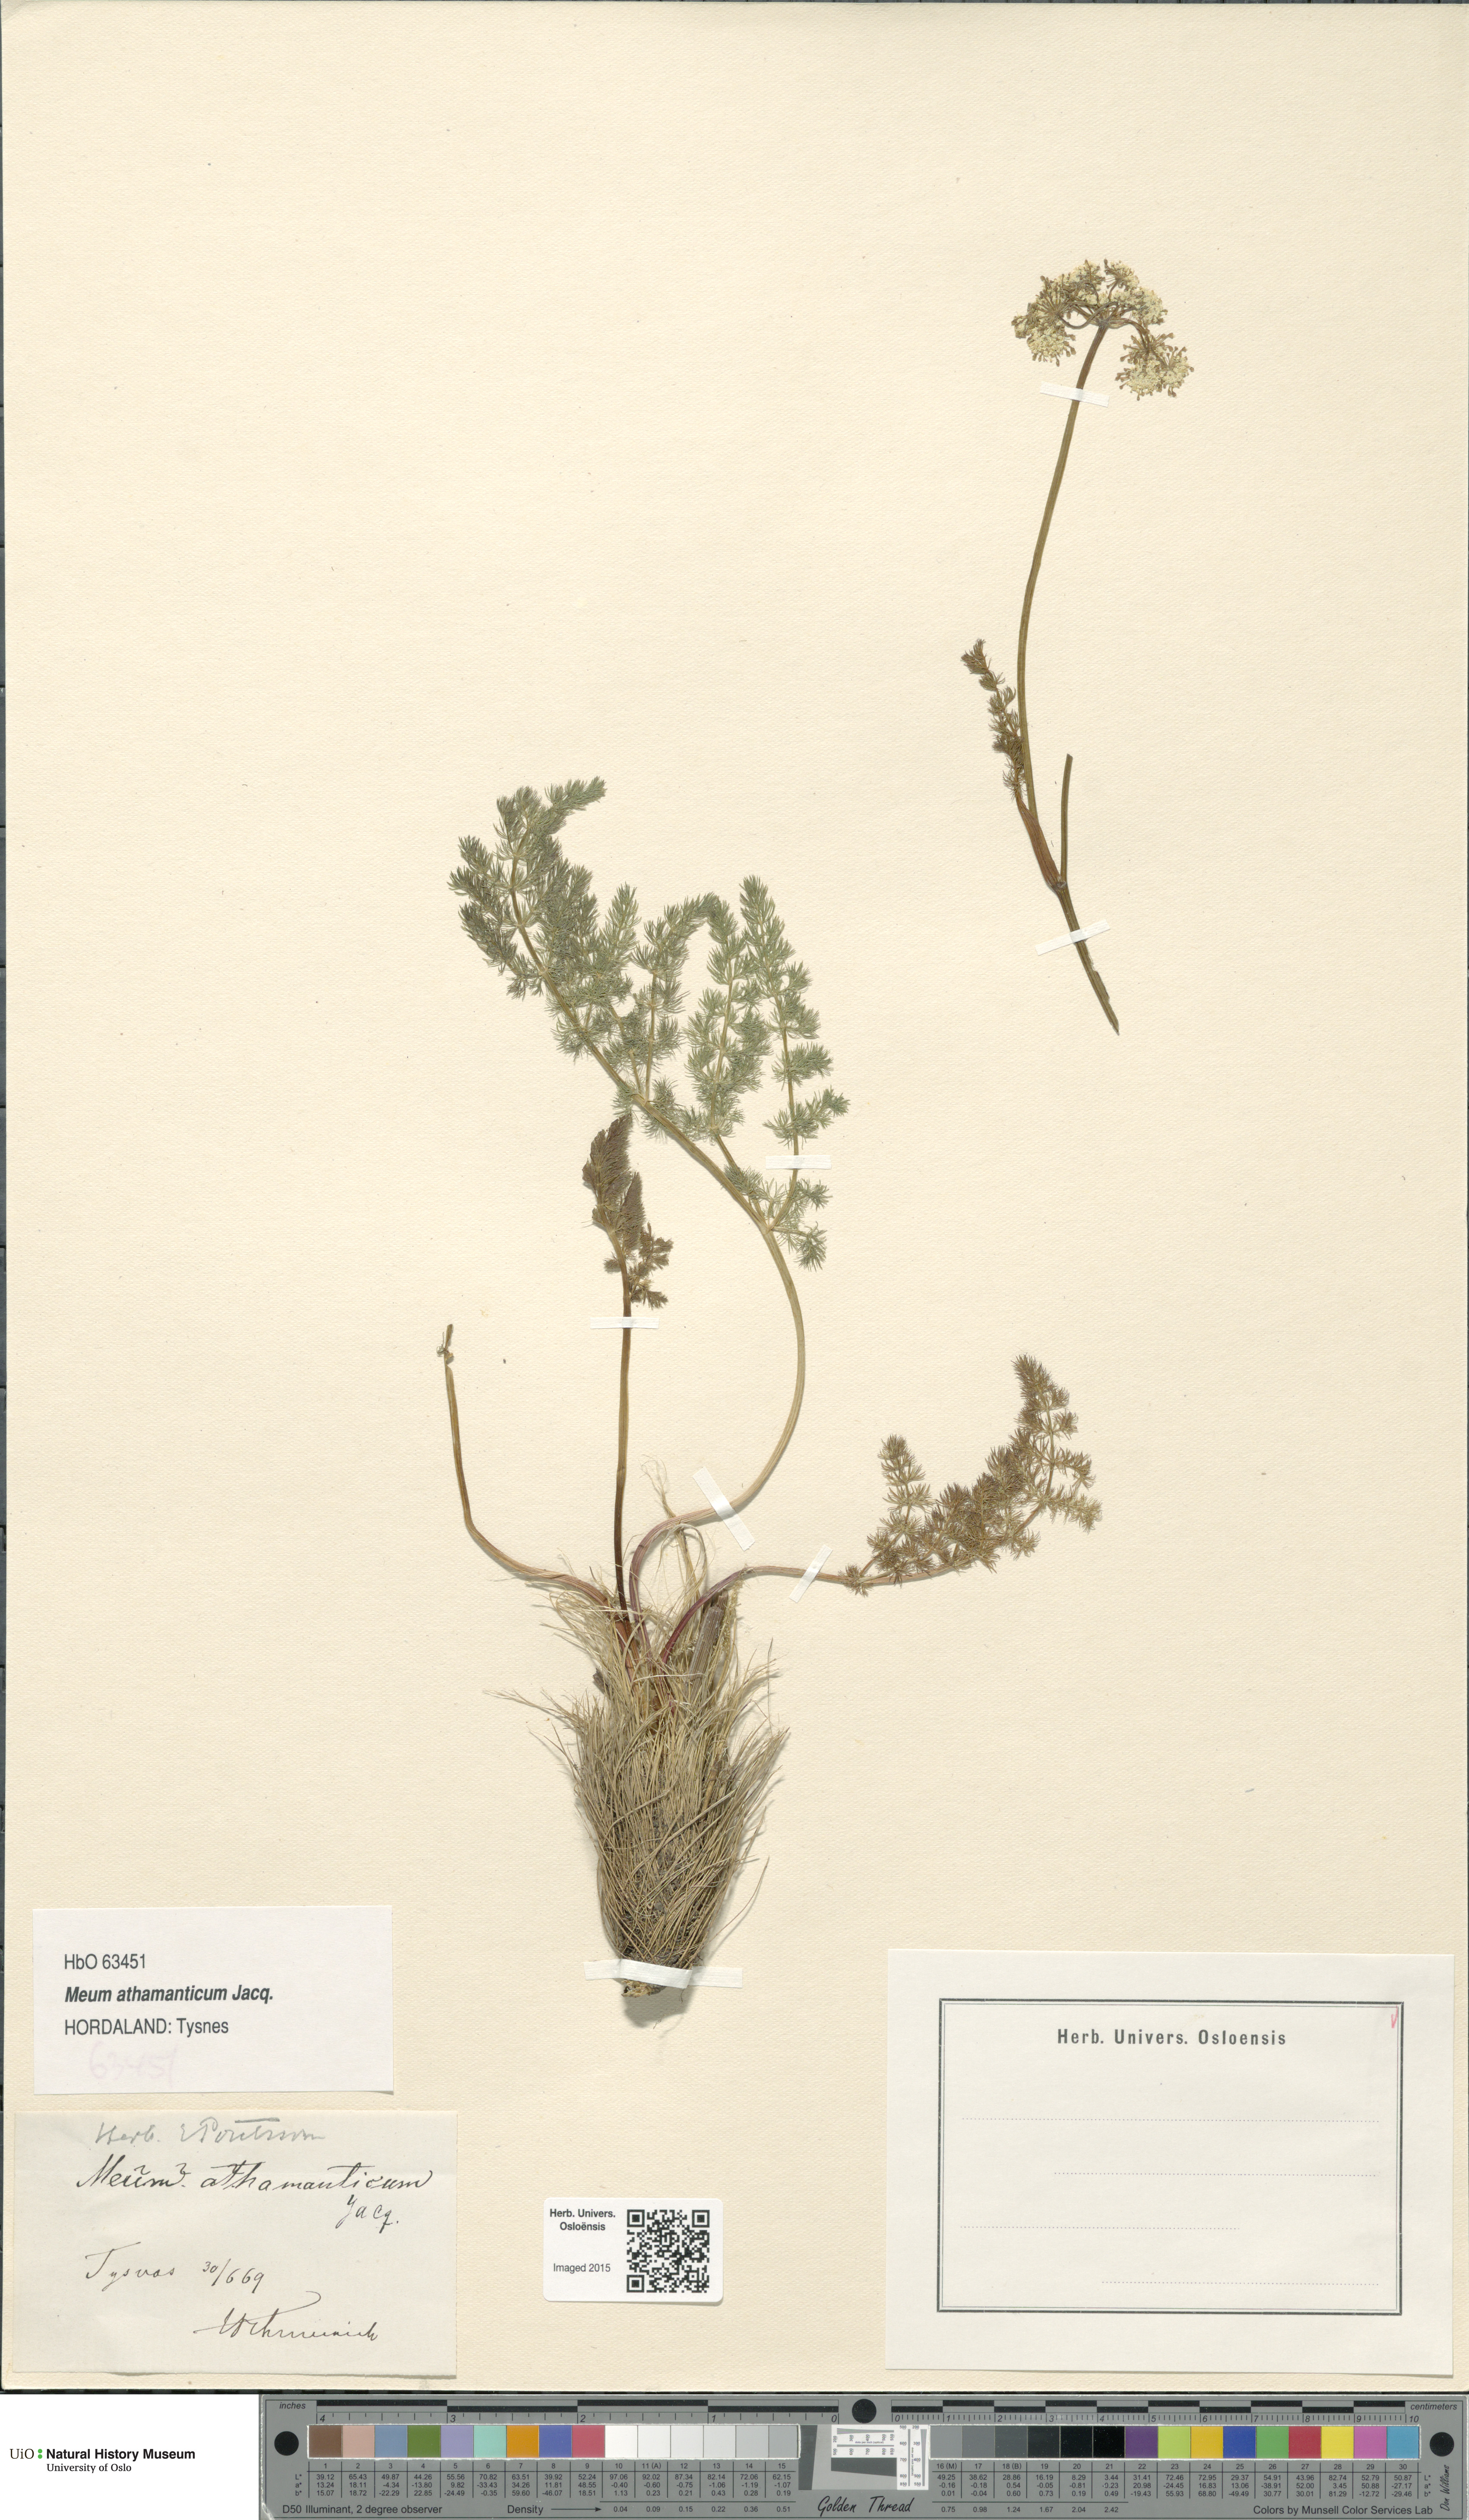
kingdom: Plantae
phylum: Tracheophyta
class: Magnoliopsida
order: Apiales
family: Apiaceae
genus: Meum
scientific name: Meum athamanticum
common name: Spignel
